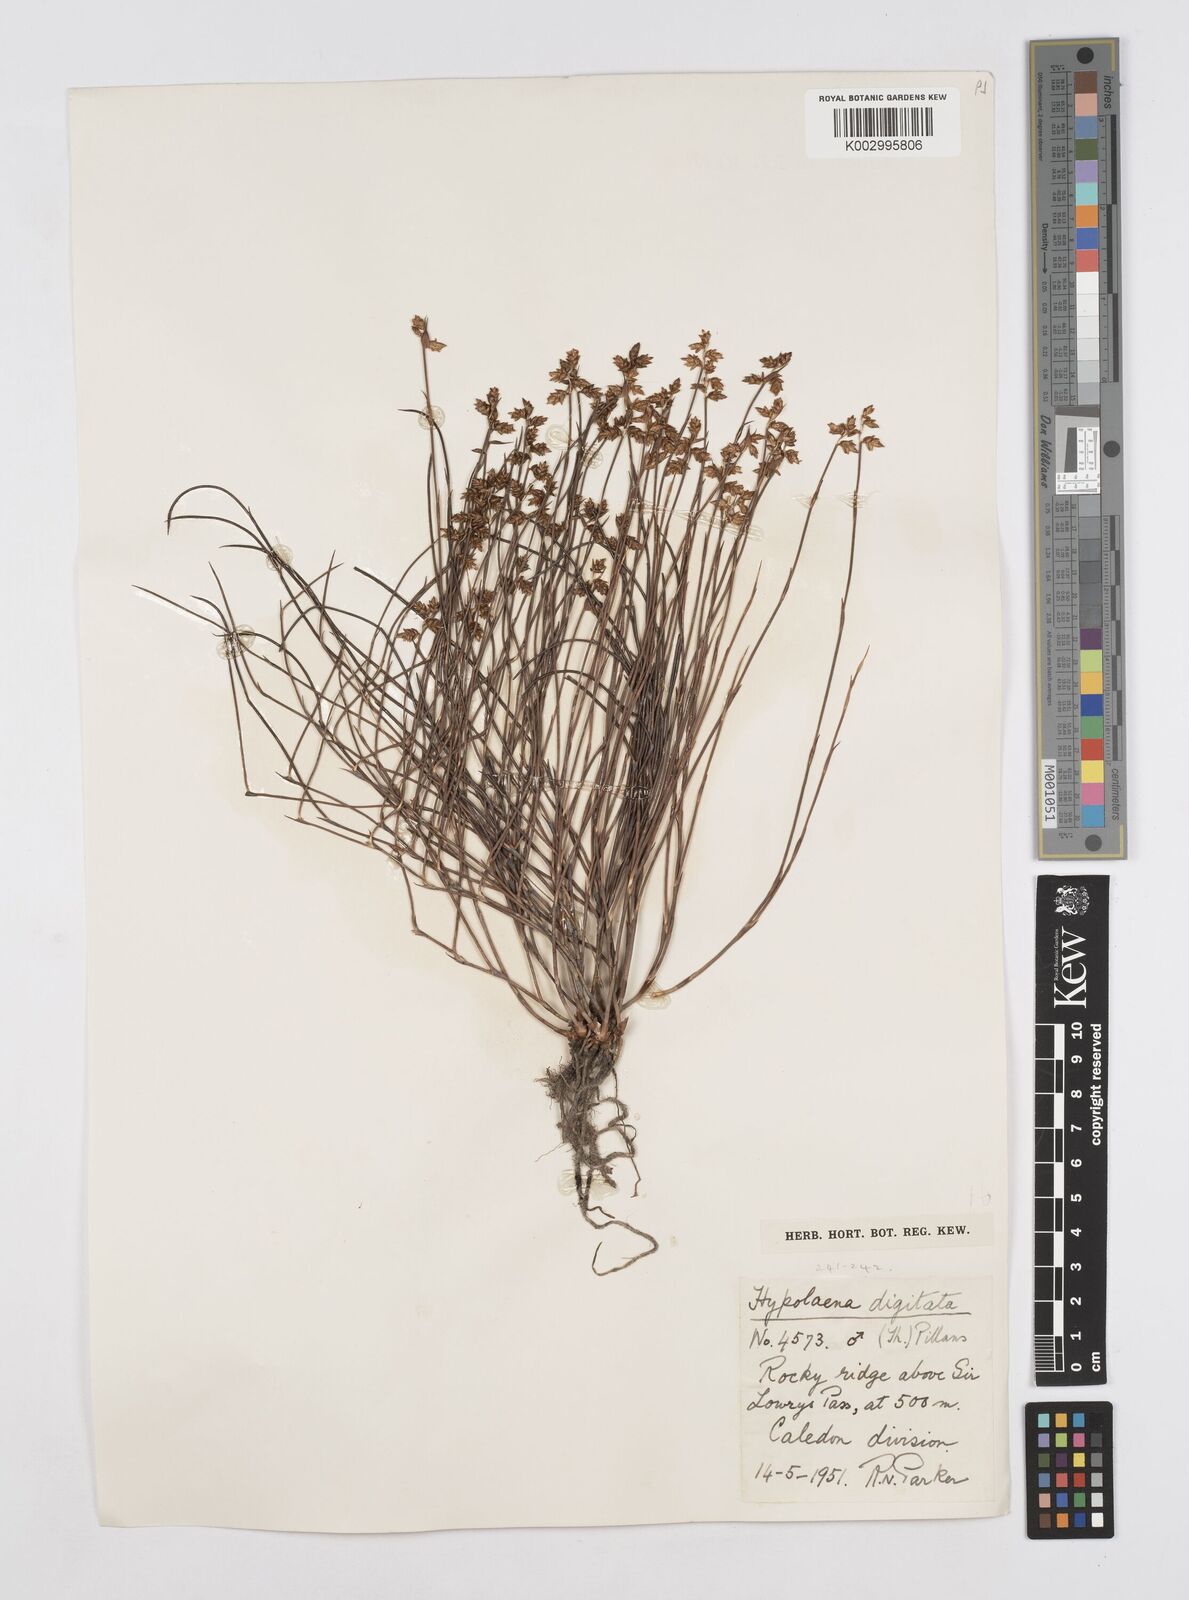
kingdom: Plantae
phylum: Tracheophyta
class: Liliopsida
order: Poales
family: Restionaceae
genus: Mastersiella
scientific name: Mastersiella digitata
